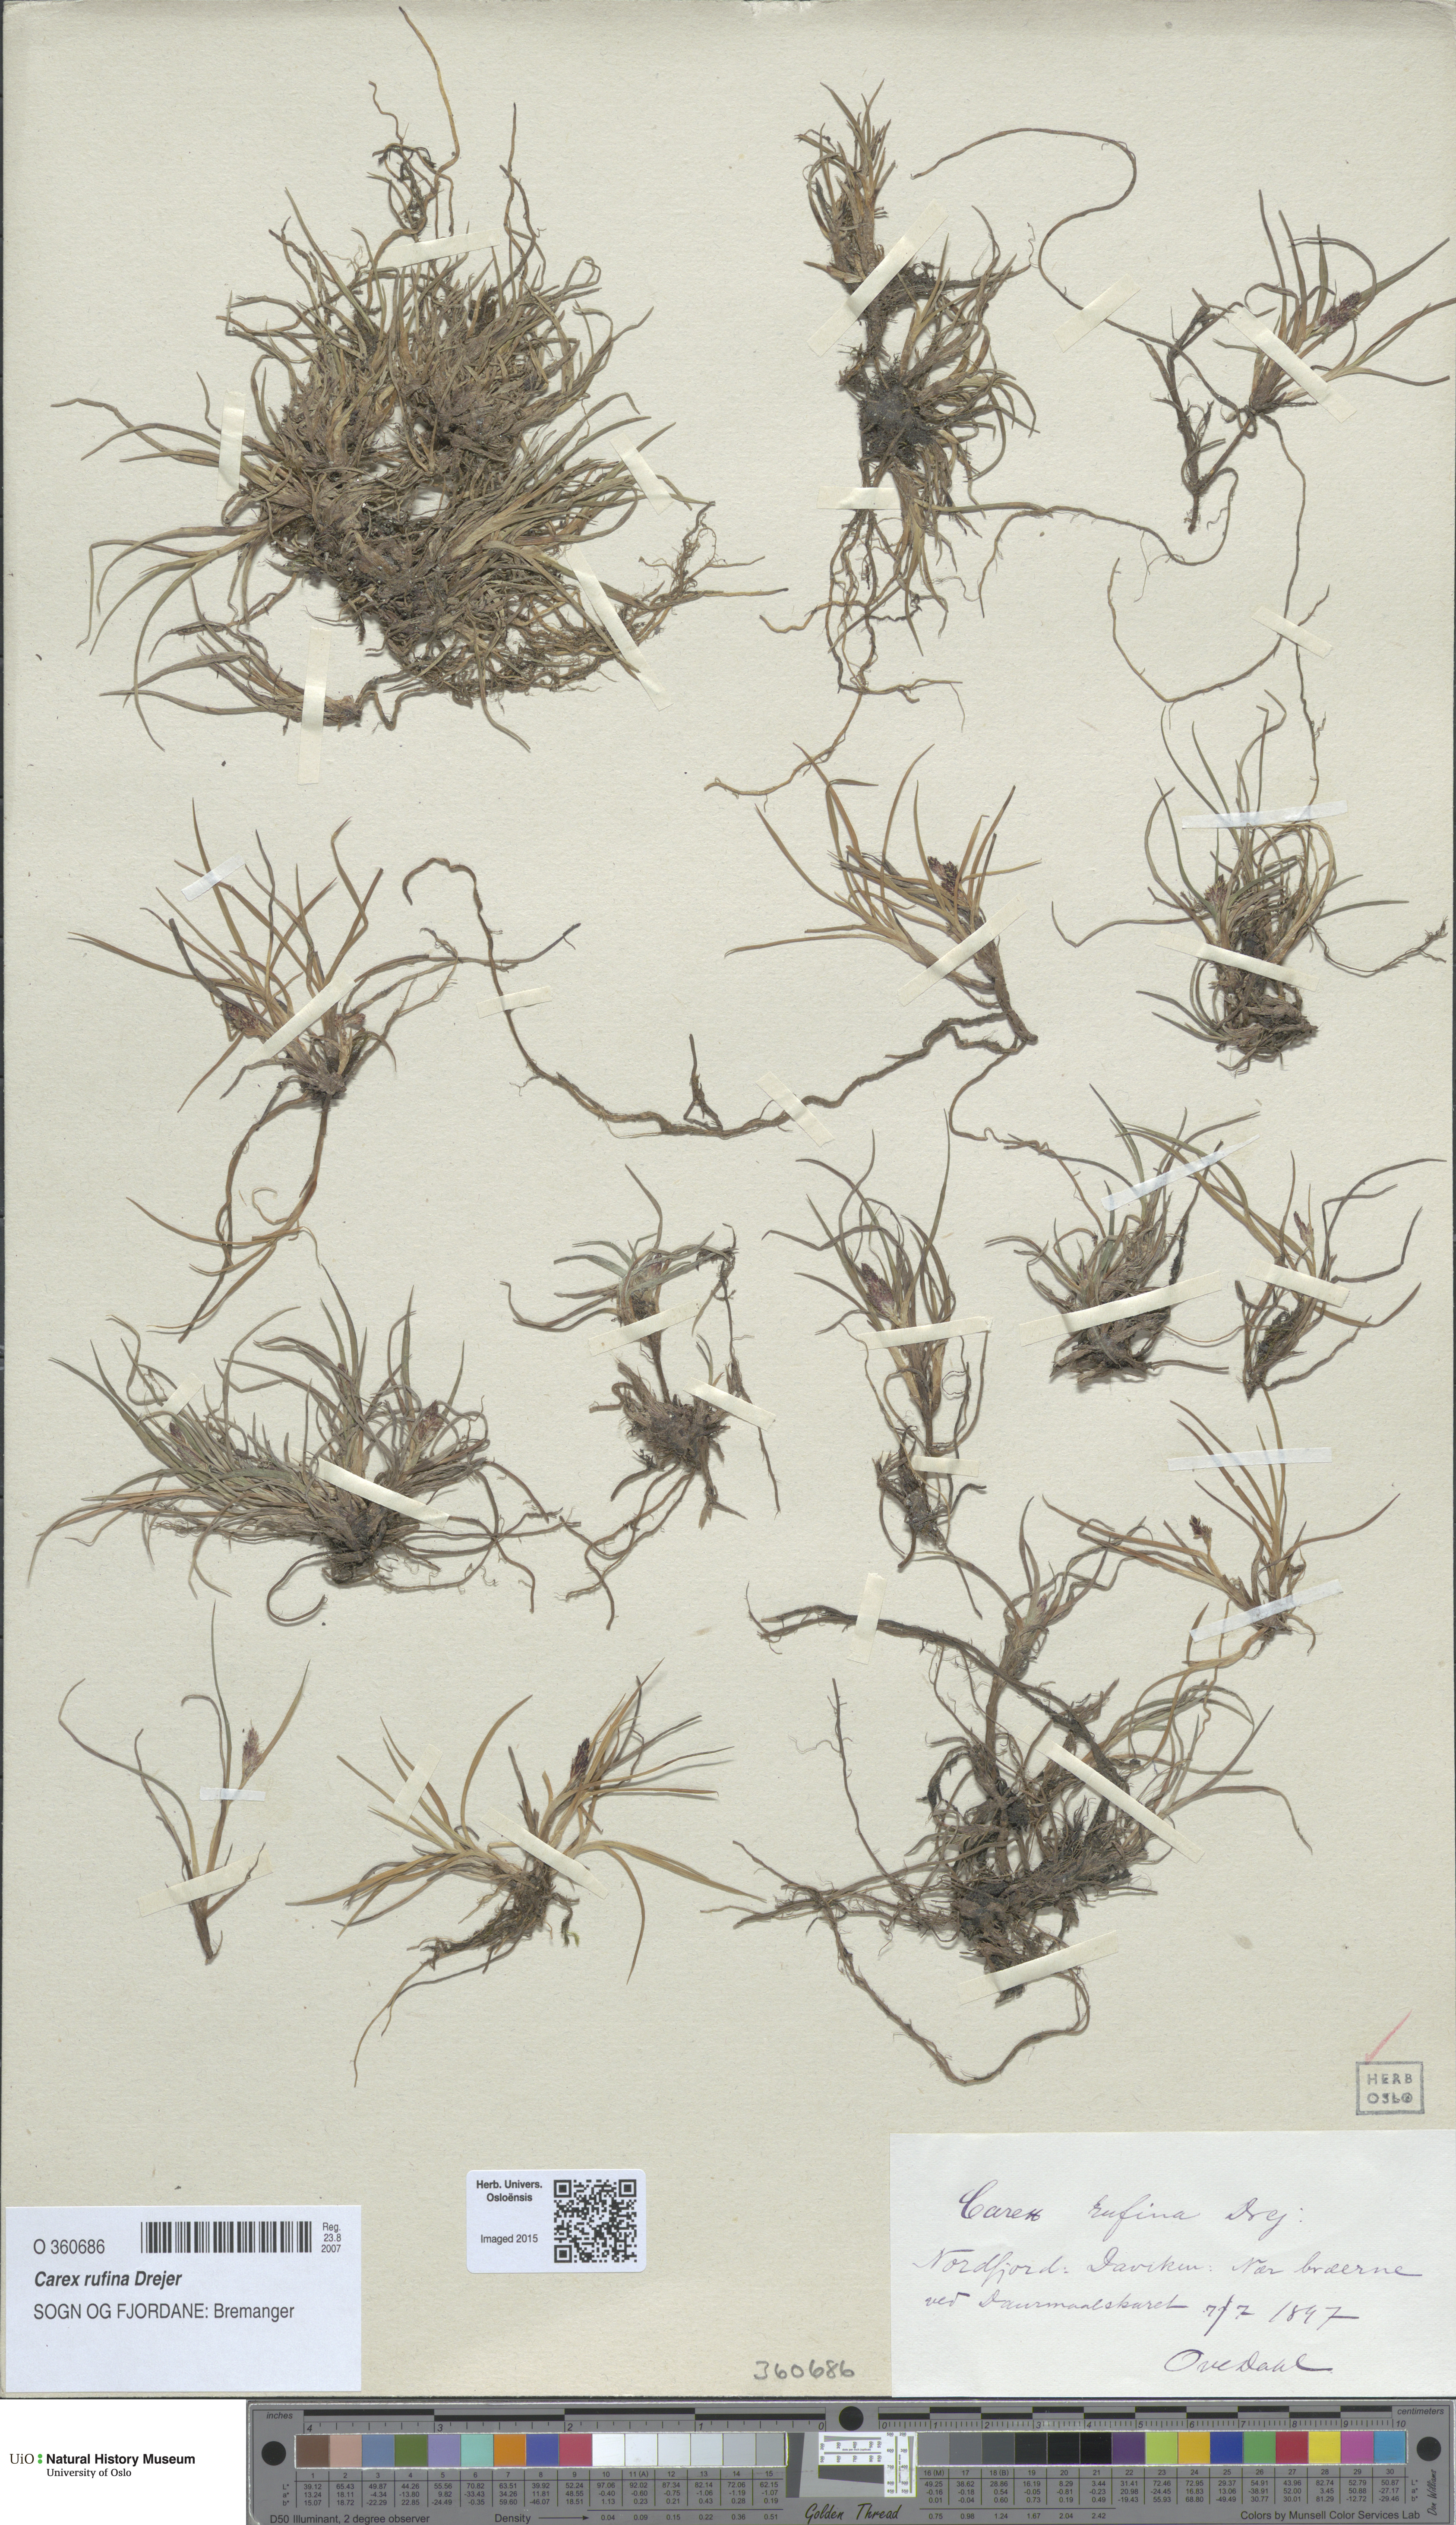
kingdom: Plantae
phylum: Tracheophyta
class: Liliopsida
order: Poales
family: Cyperaceae
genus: Carex
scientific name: Carex rufina
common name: Reddish sedge
